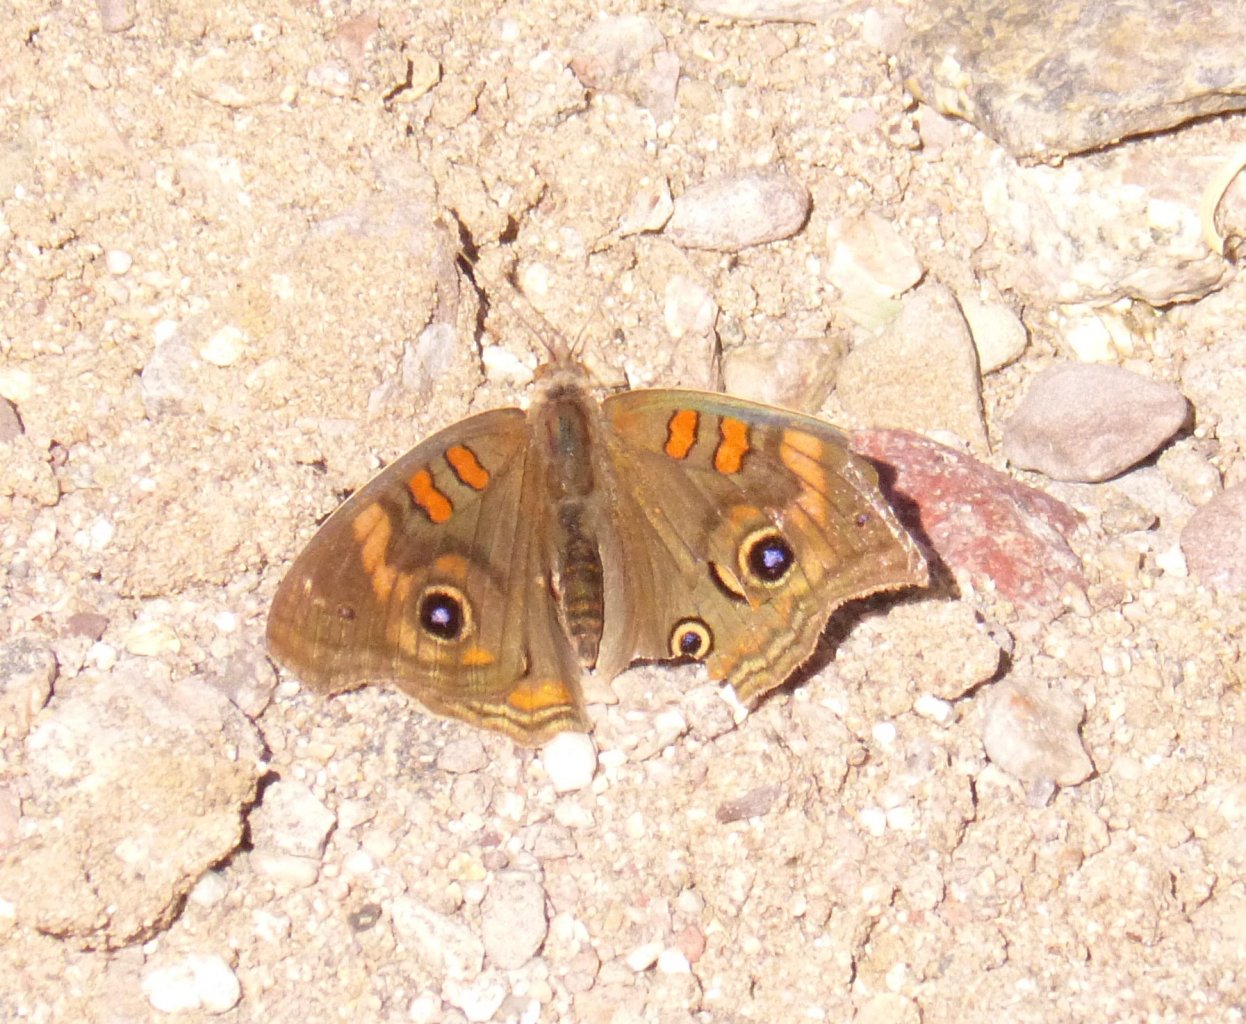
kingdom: Animalia
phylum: Arthropoda
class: Insecta
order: Lepidoptera
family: Nymphalidae
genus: Junonia
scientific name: Junonia lavinia
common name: Tropical Buckeye
